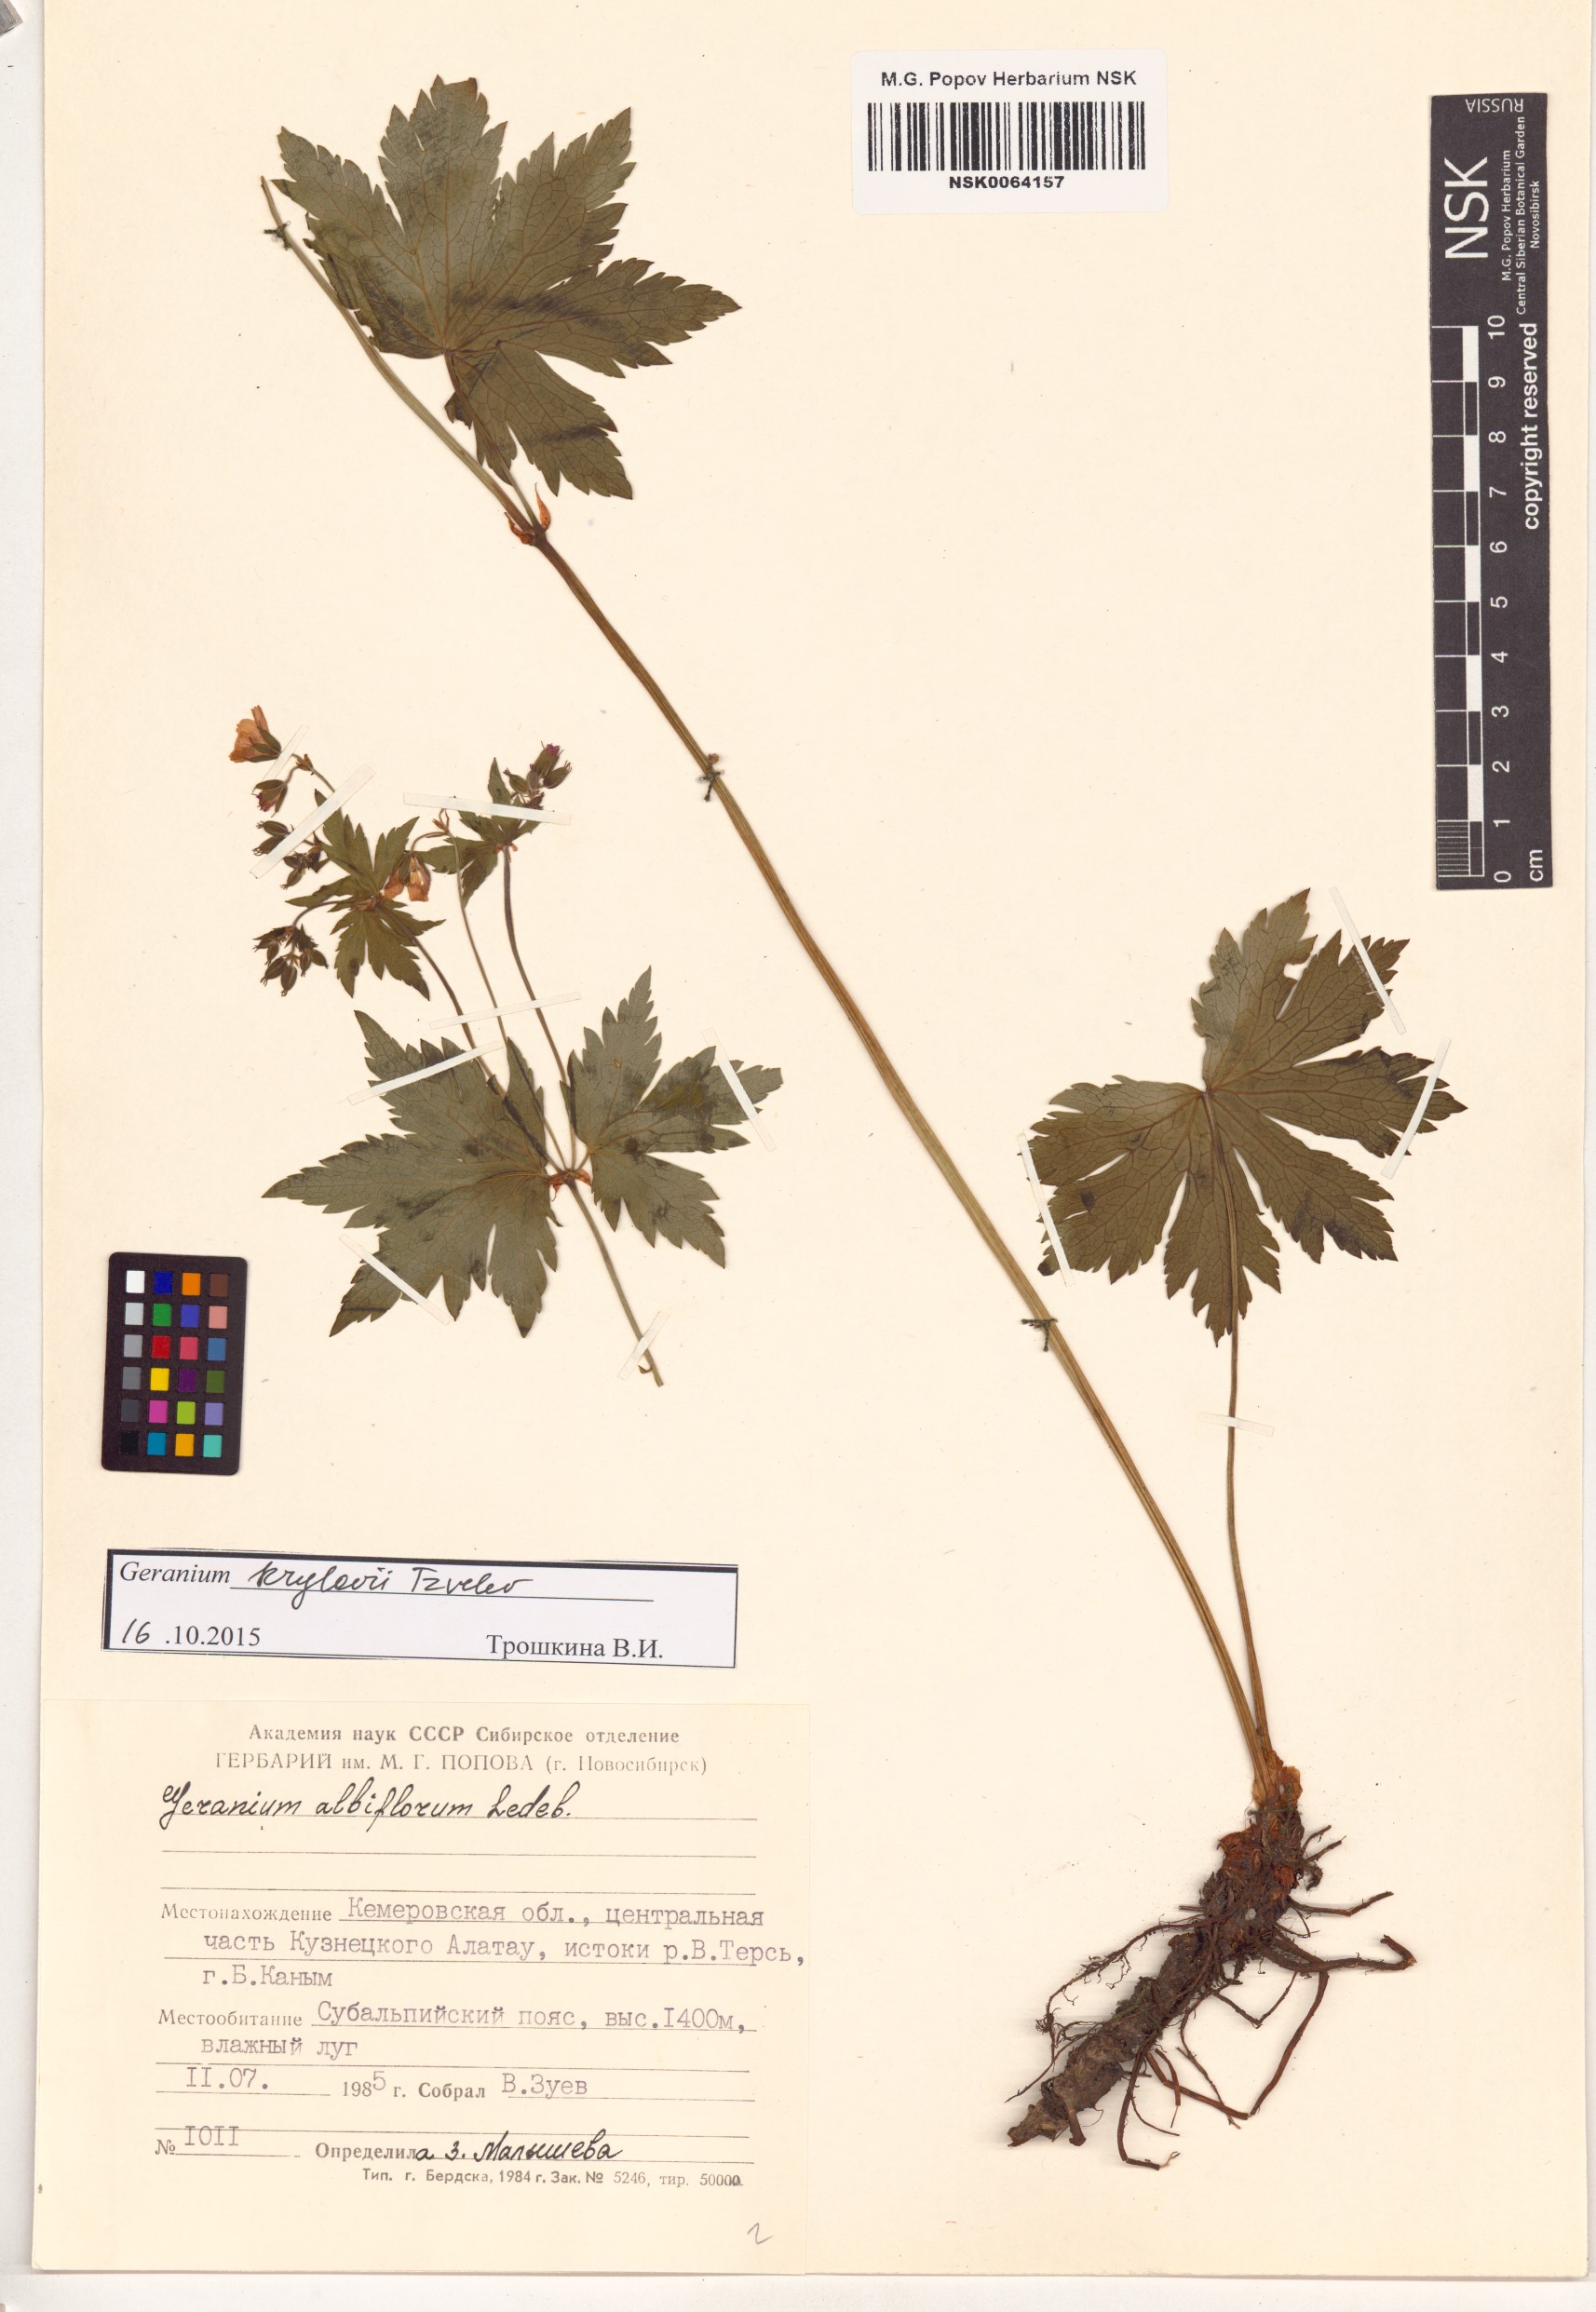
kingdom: Plantae
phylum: Tracheophyta
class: Magnoliopsida
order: Geraniales
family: Geraniaceae
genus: Geranium
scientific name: Geranium sylvaticum
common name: Wood crane's-bill
